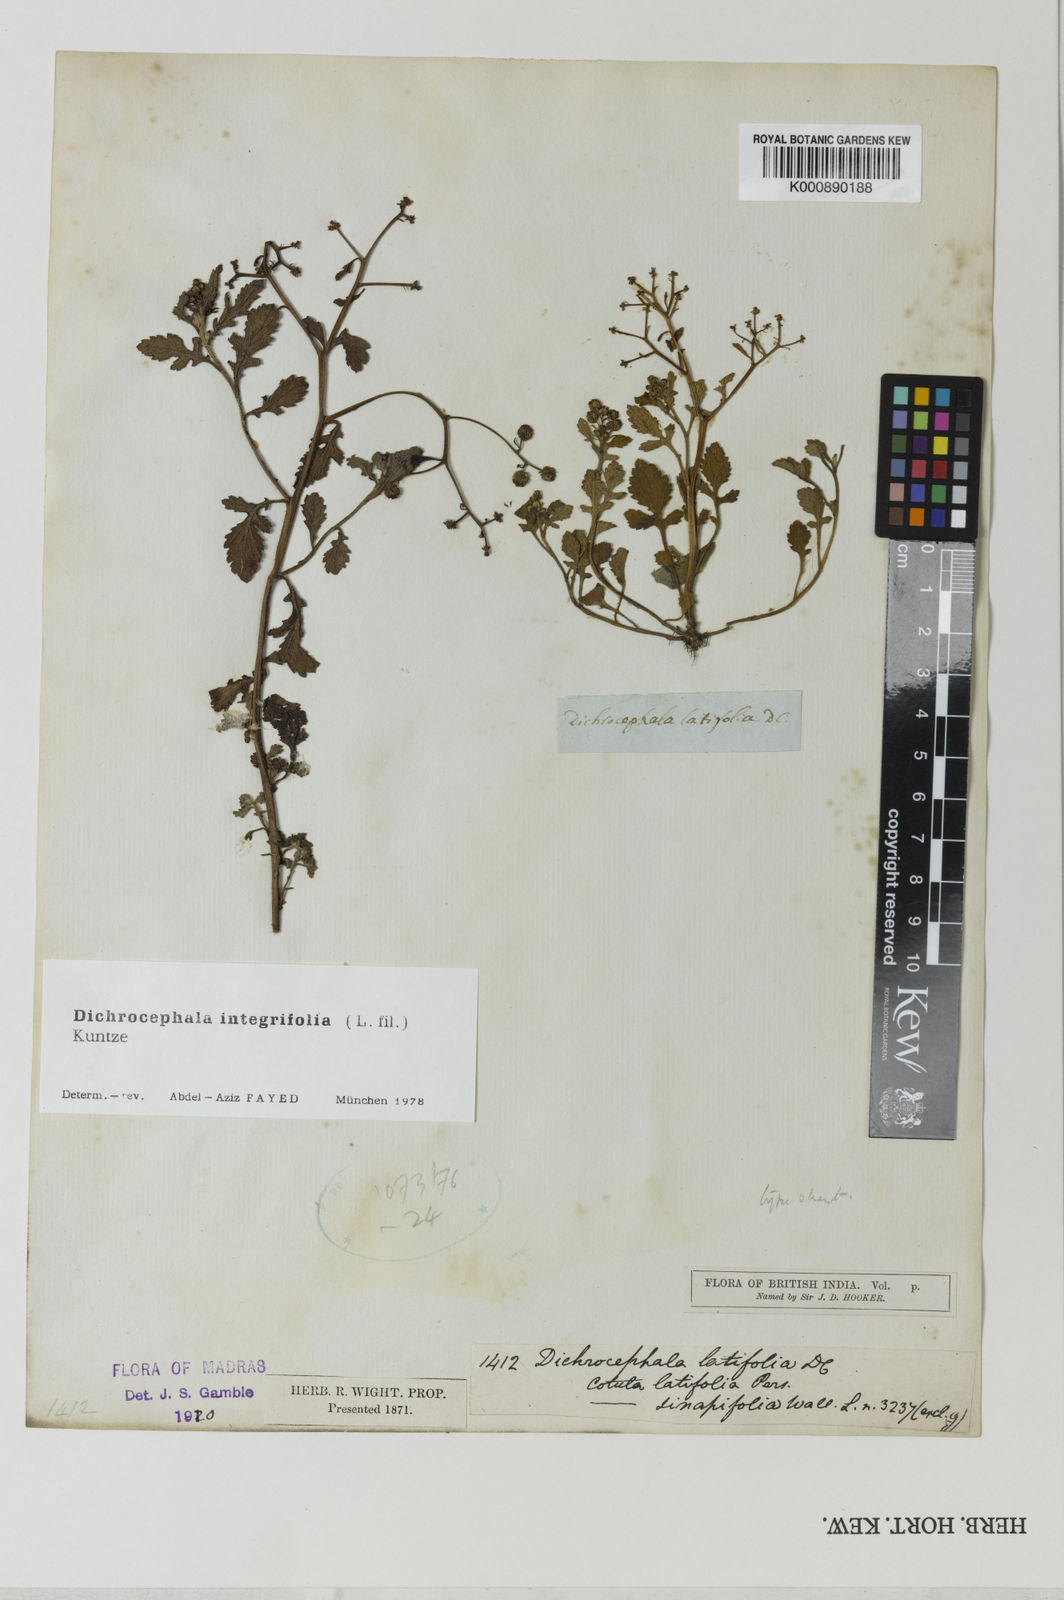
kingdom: Plantae
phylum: Tracheophyta
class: Magnoliopsida
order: Asterales
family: Asteraceae
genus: Dichrocephala
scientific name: Dichrocephala integrifolia
